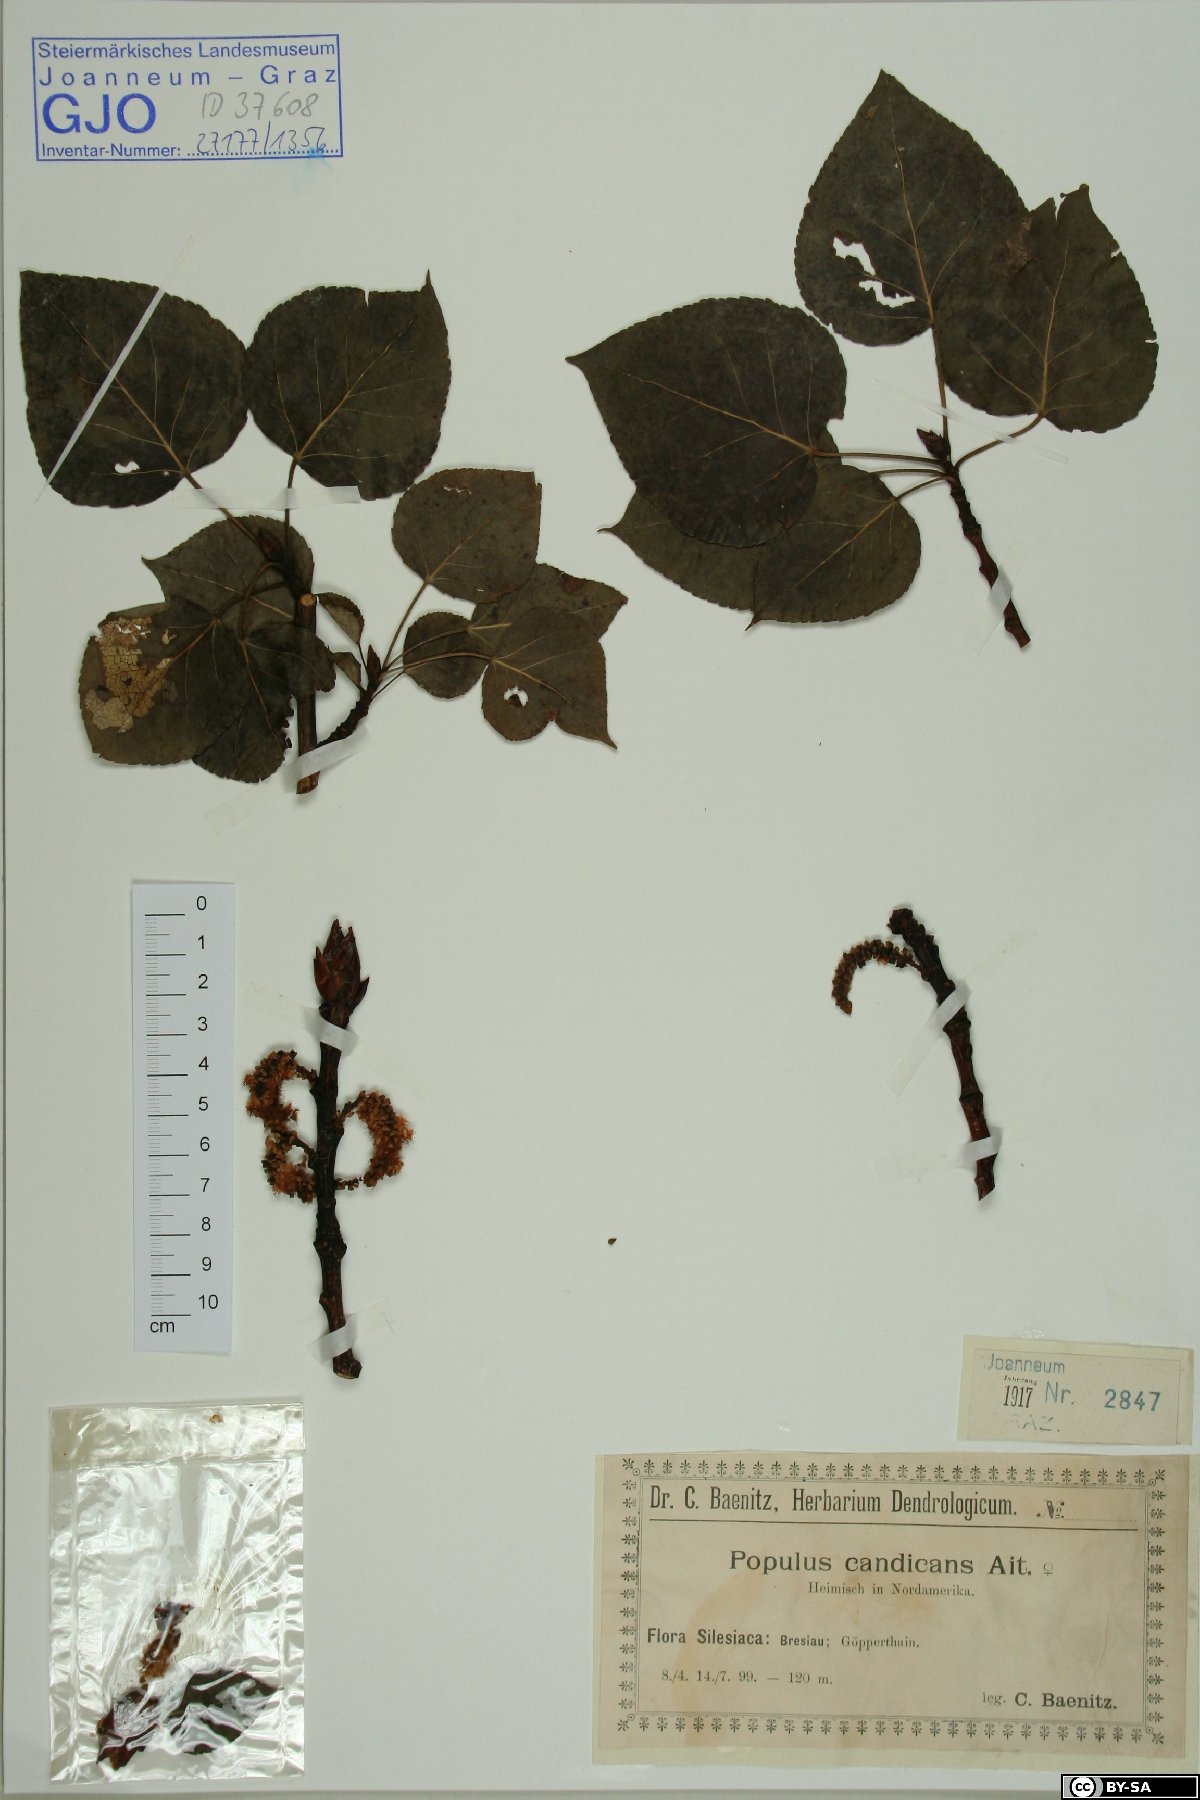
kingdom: Plantae
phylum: Tracheophyta
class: Magnoliopsida
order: Malpighiales
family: Salicaceae
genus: Populus
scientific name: Populus balsamifera
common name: Balsam poplar
